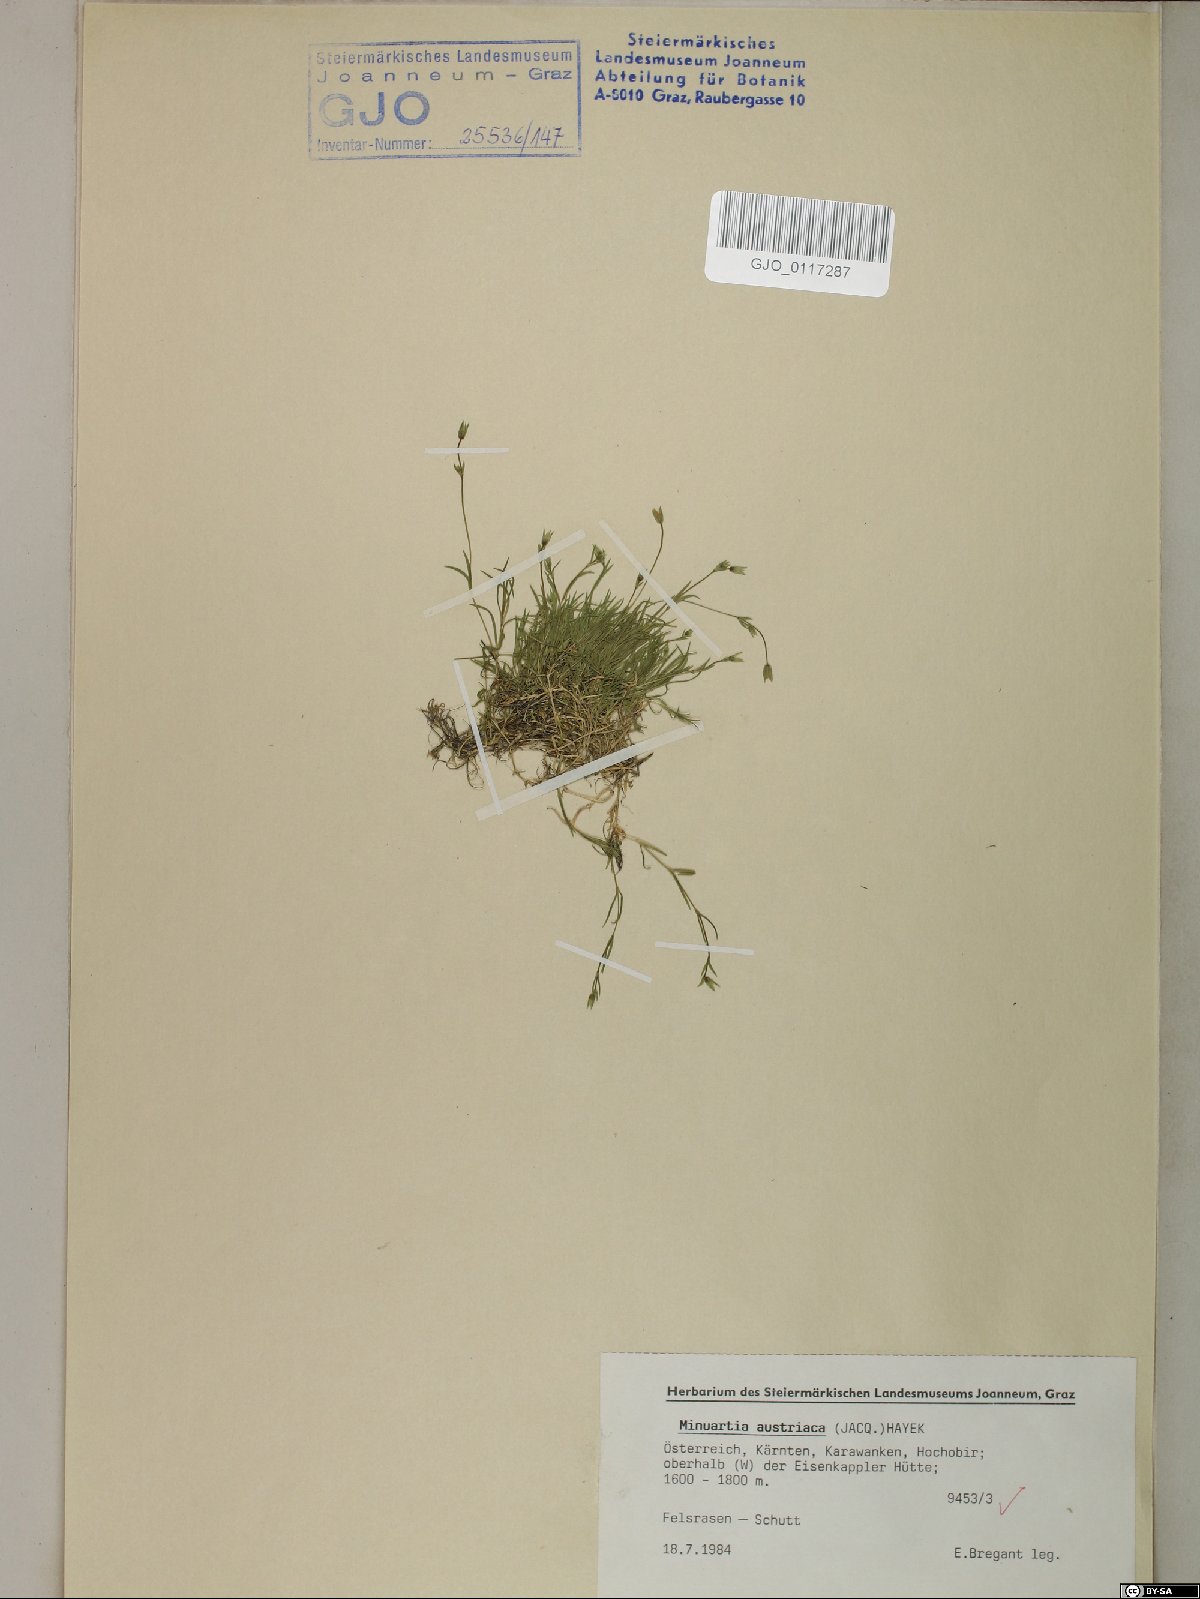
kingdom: Plantae
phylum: Tracheophyta
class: Magnoliopsida
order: Caryophyllales
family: Caryophyllaceae
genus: Sabulina
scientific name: Sabulina austriaca
